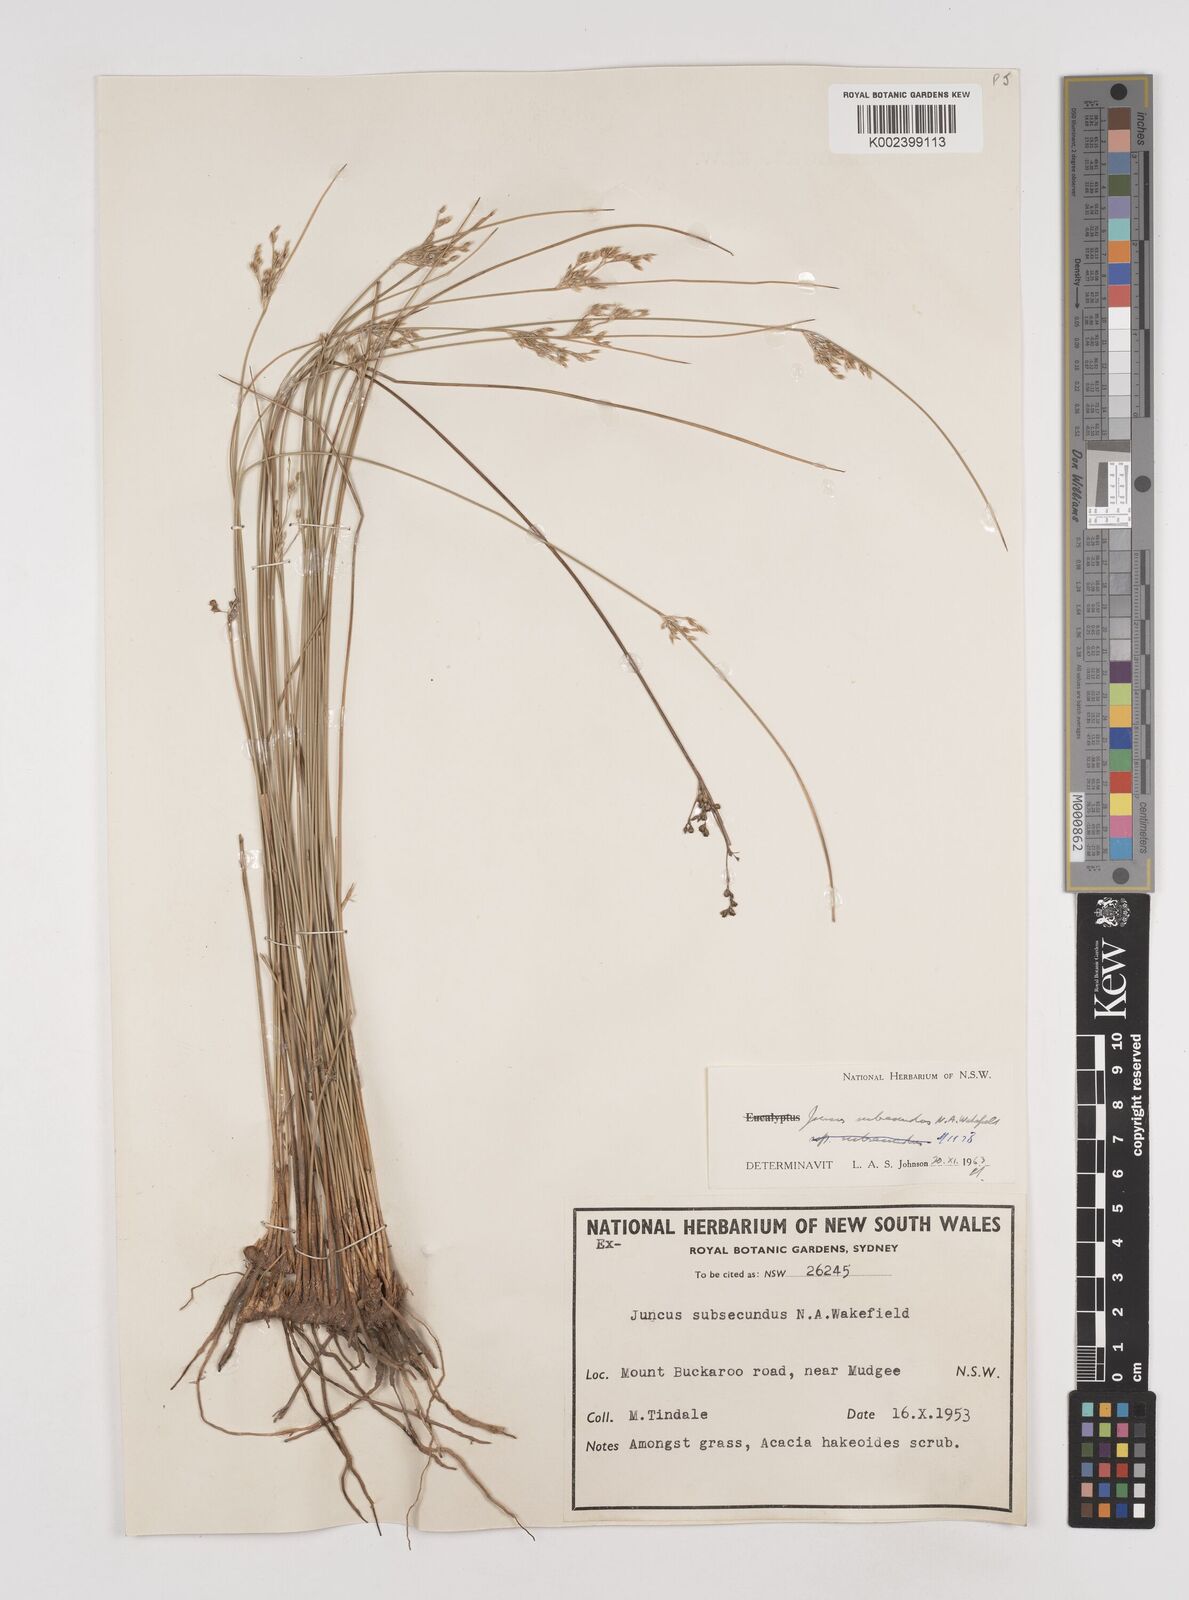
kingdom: Plantae
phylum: Tracheophyta
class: Liliopsida
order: Poales
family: Juncaceae
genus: Juncus
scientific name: Juncus subsecundus
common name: Fingered rush
